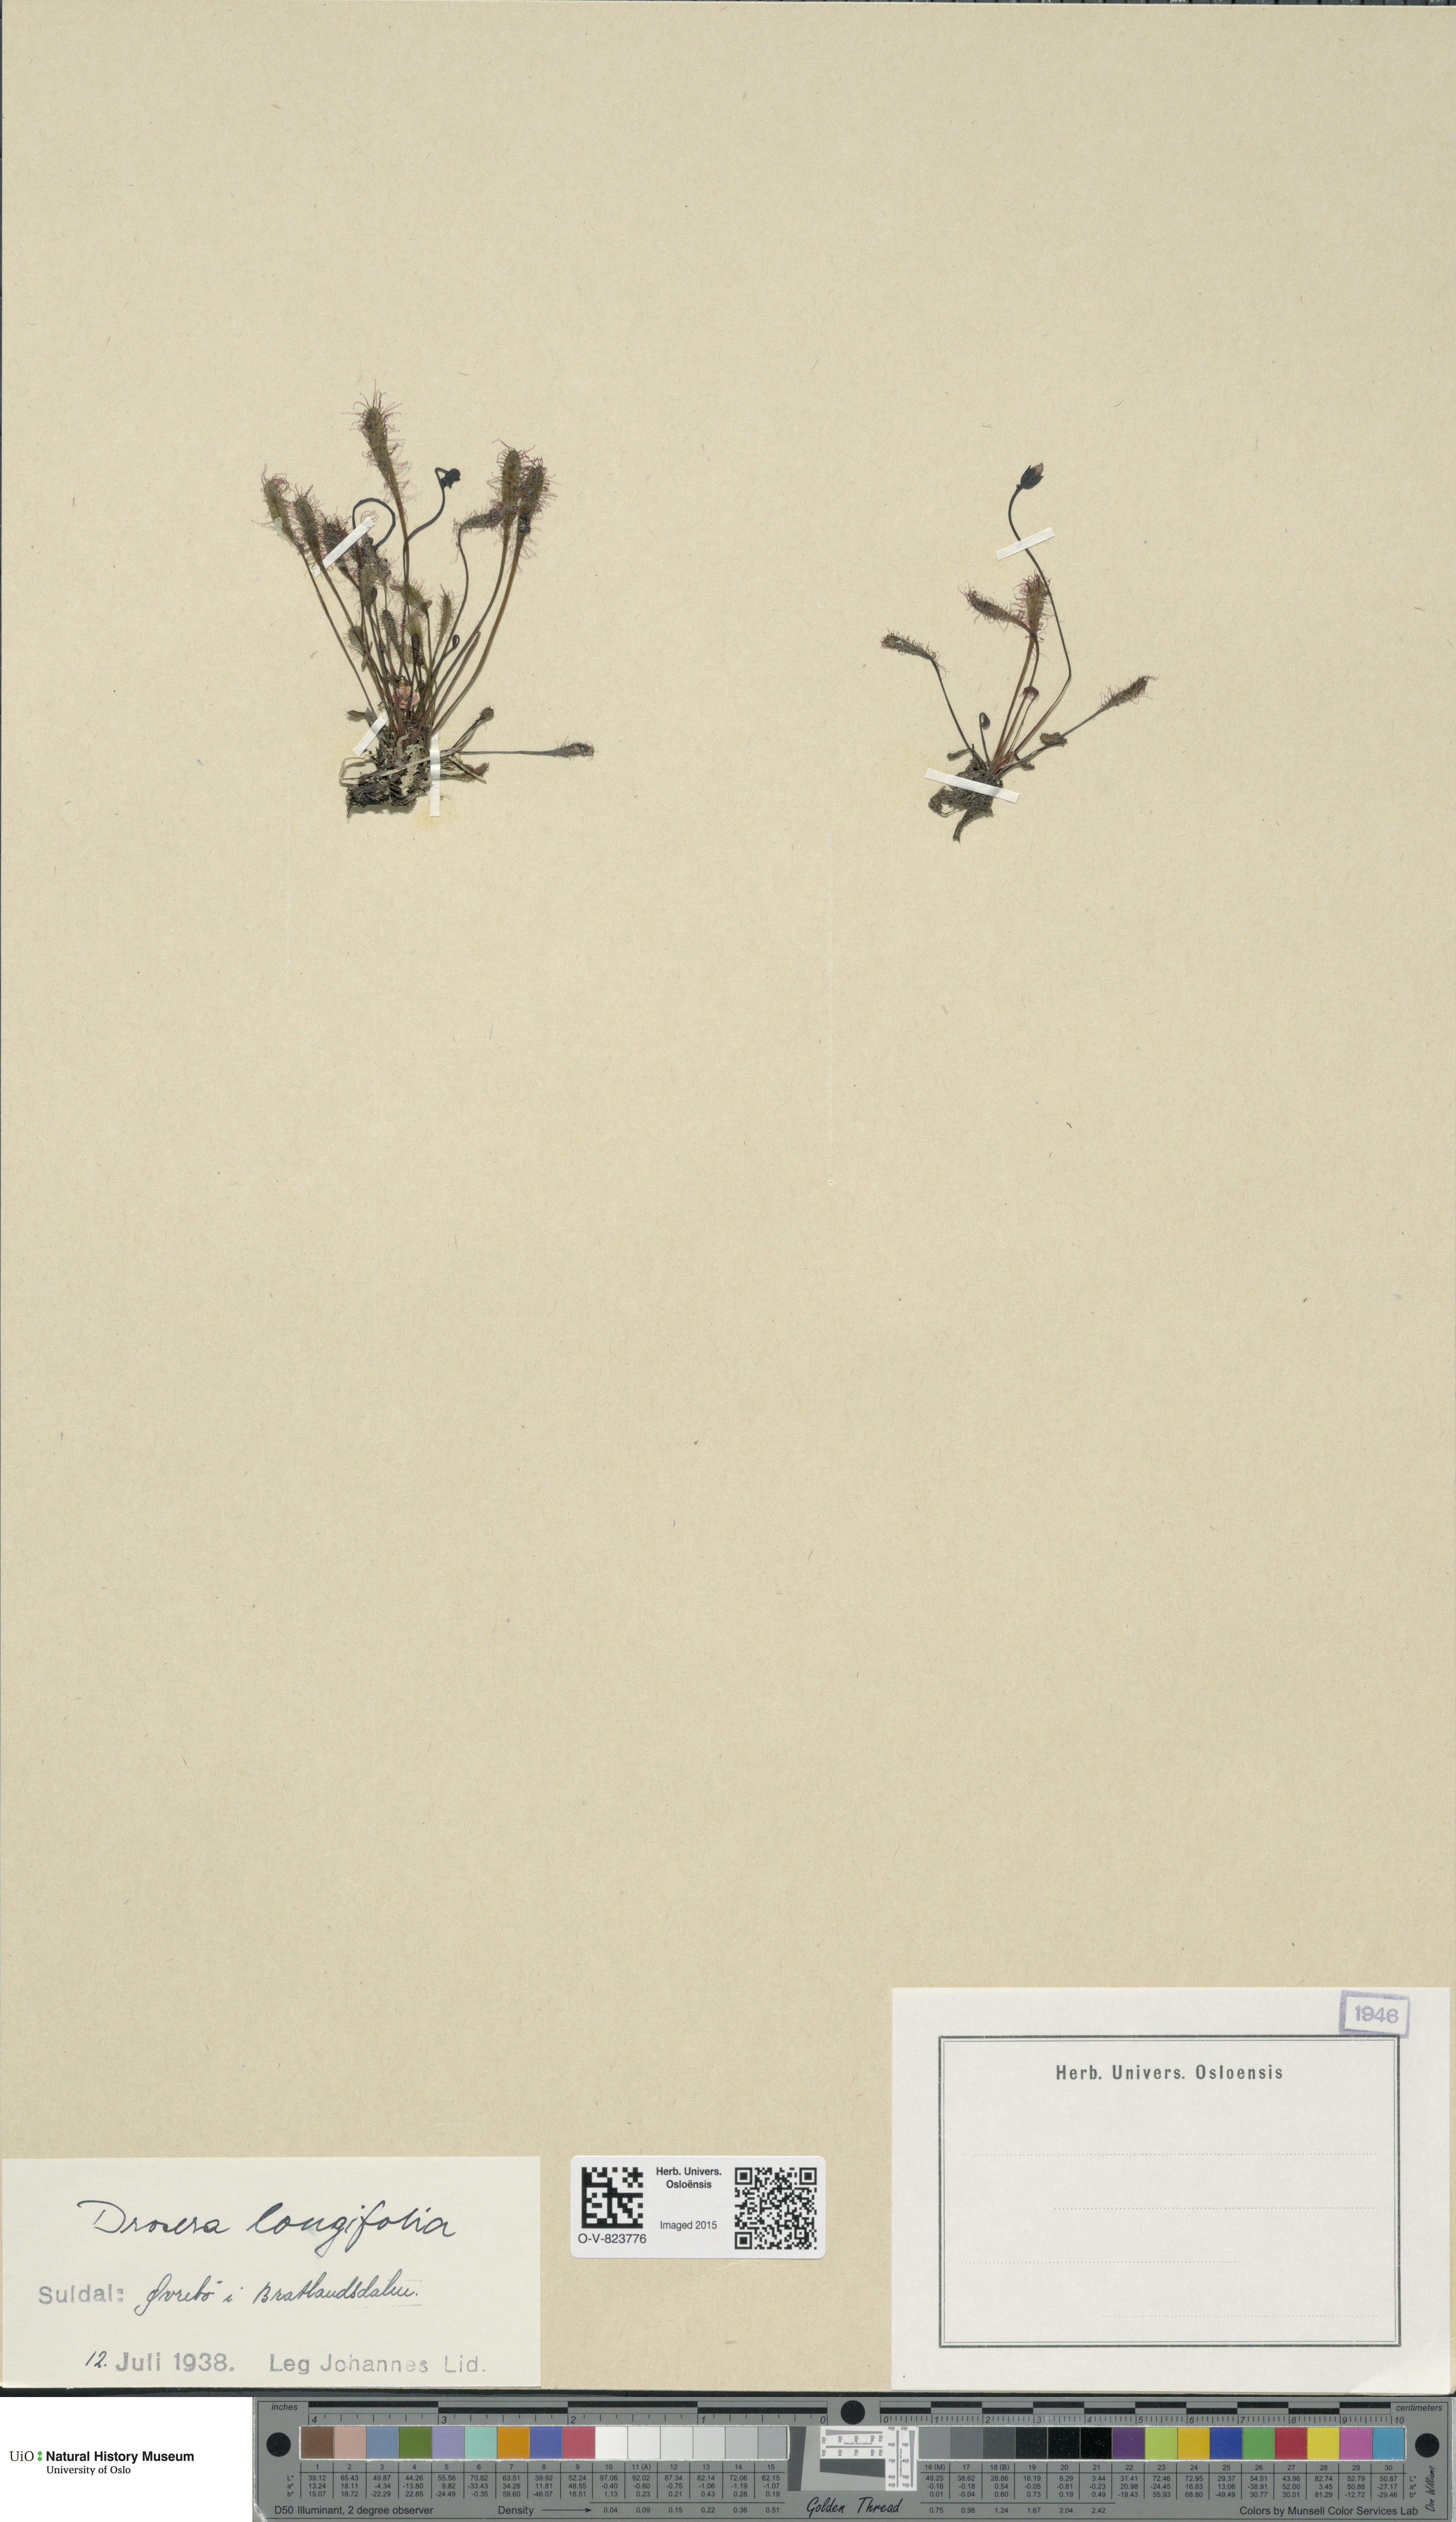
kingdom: Plantae
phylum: Tracheophyta
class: Magnoliopsida
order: Caryophyllales
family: Droseraceae
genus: Drosera
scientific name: Drosera anglica
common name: Great sundew
